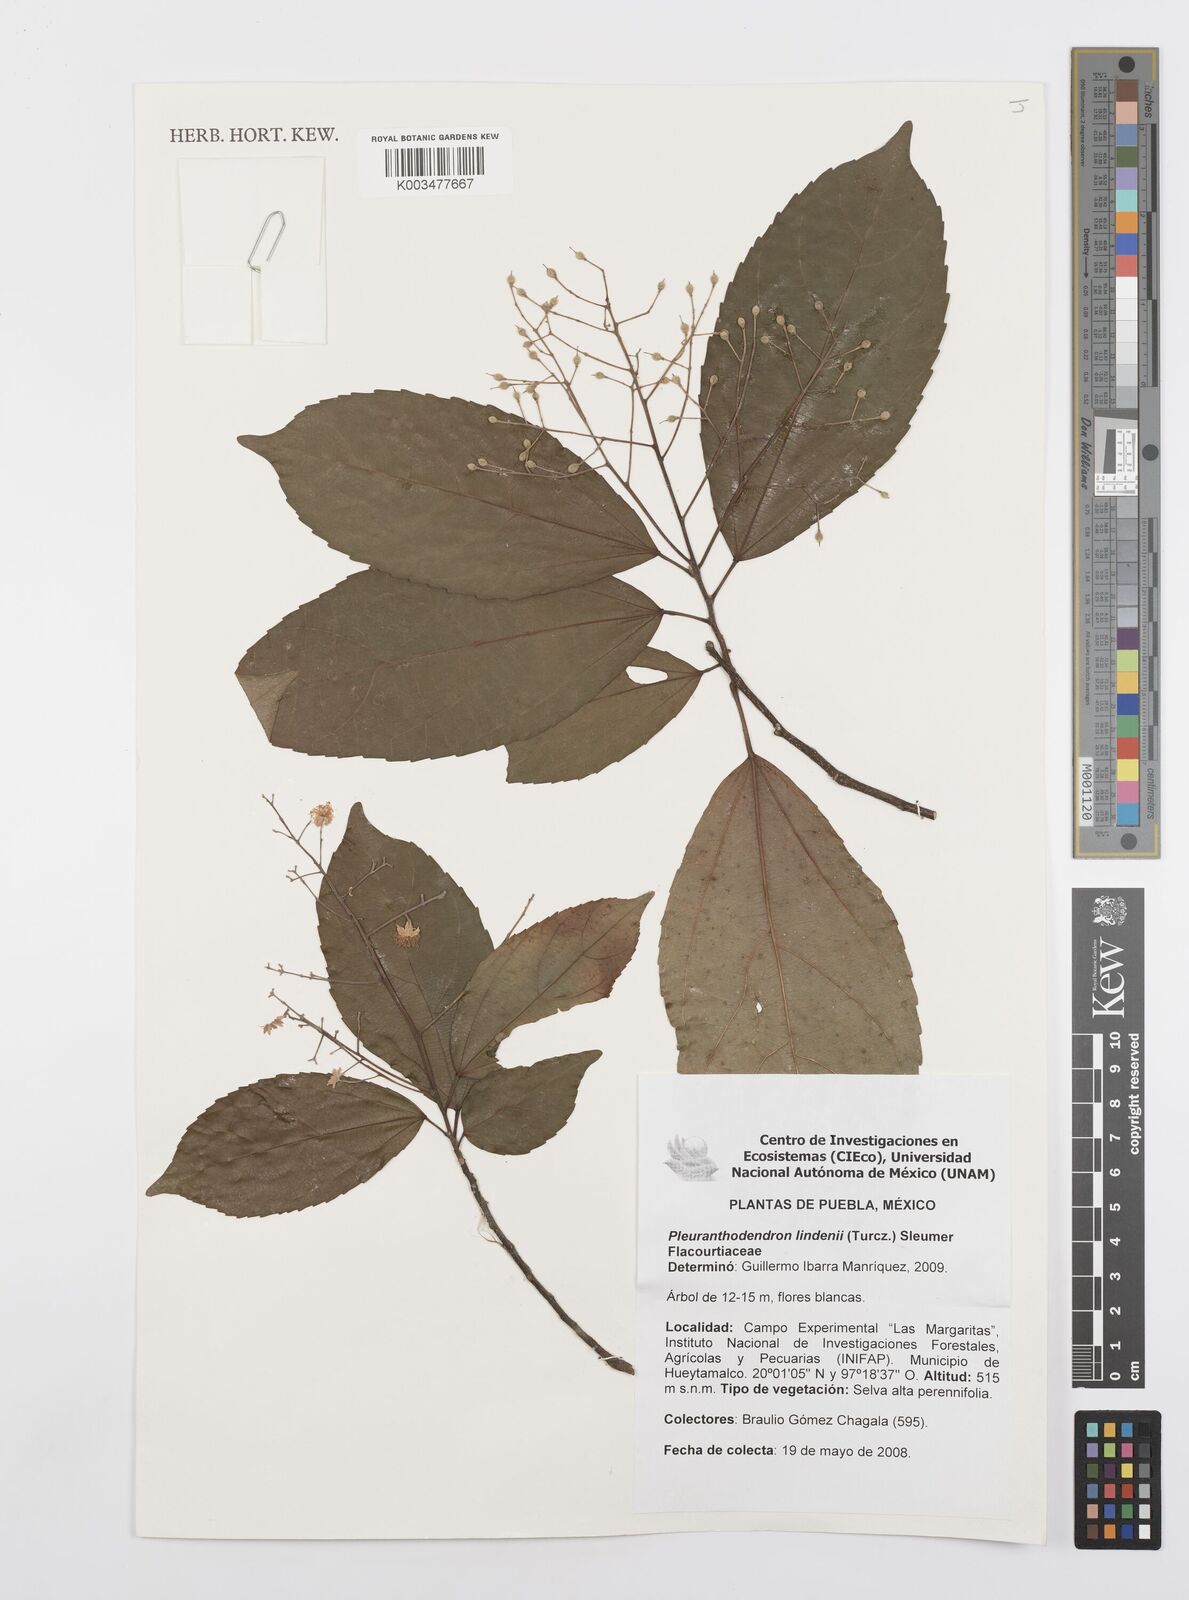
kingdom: Plantae
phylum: Tracheophyta
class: Magnoliopsida
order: Malpighiales
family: Salicaceae
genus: Pleuranthodendron
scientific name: Pleuranthodendron lindenii
